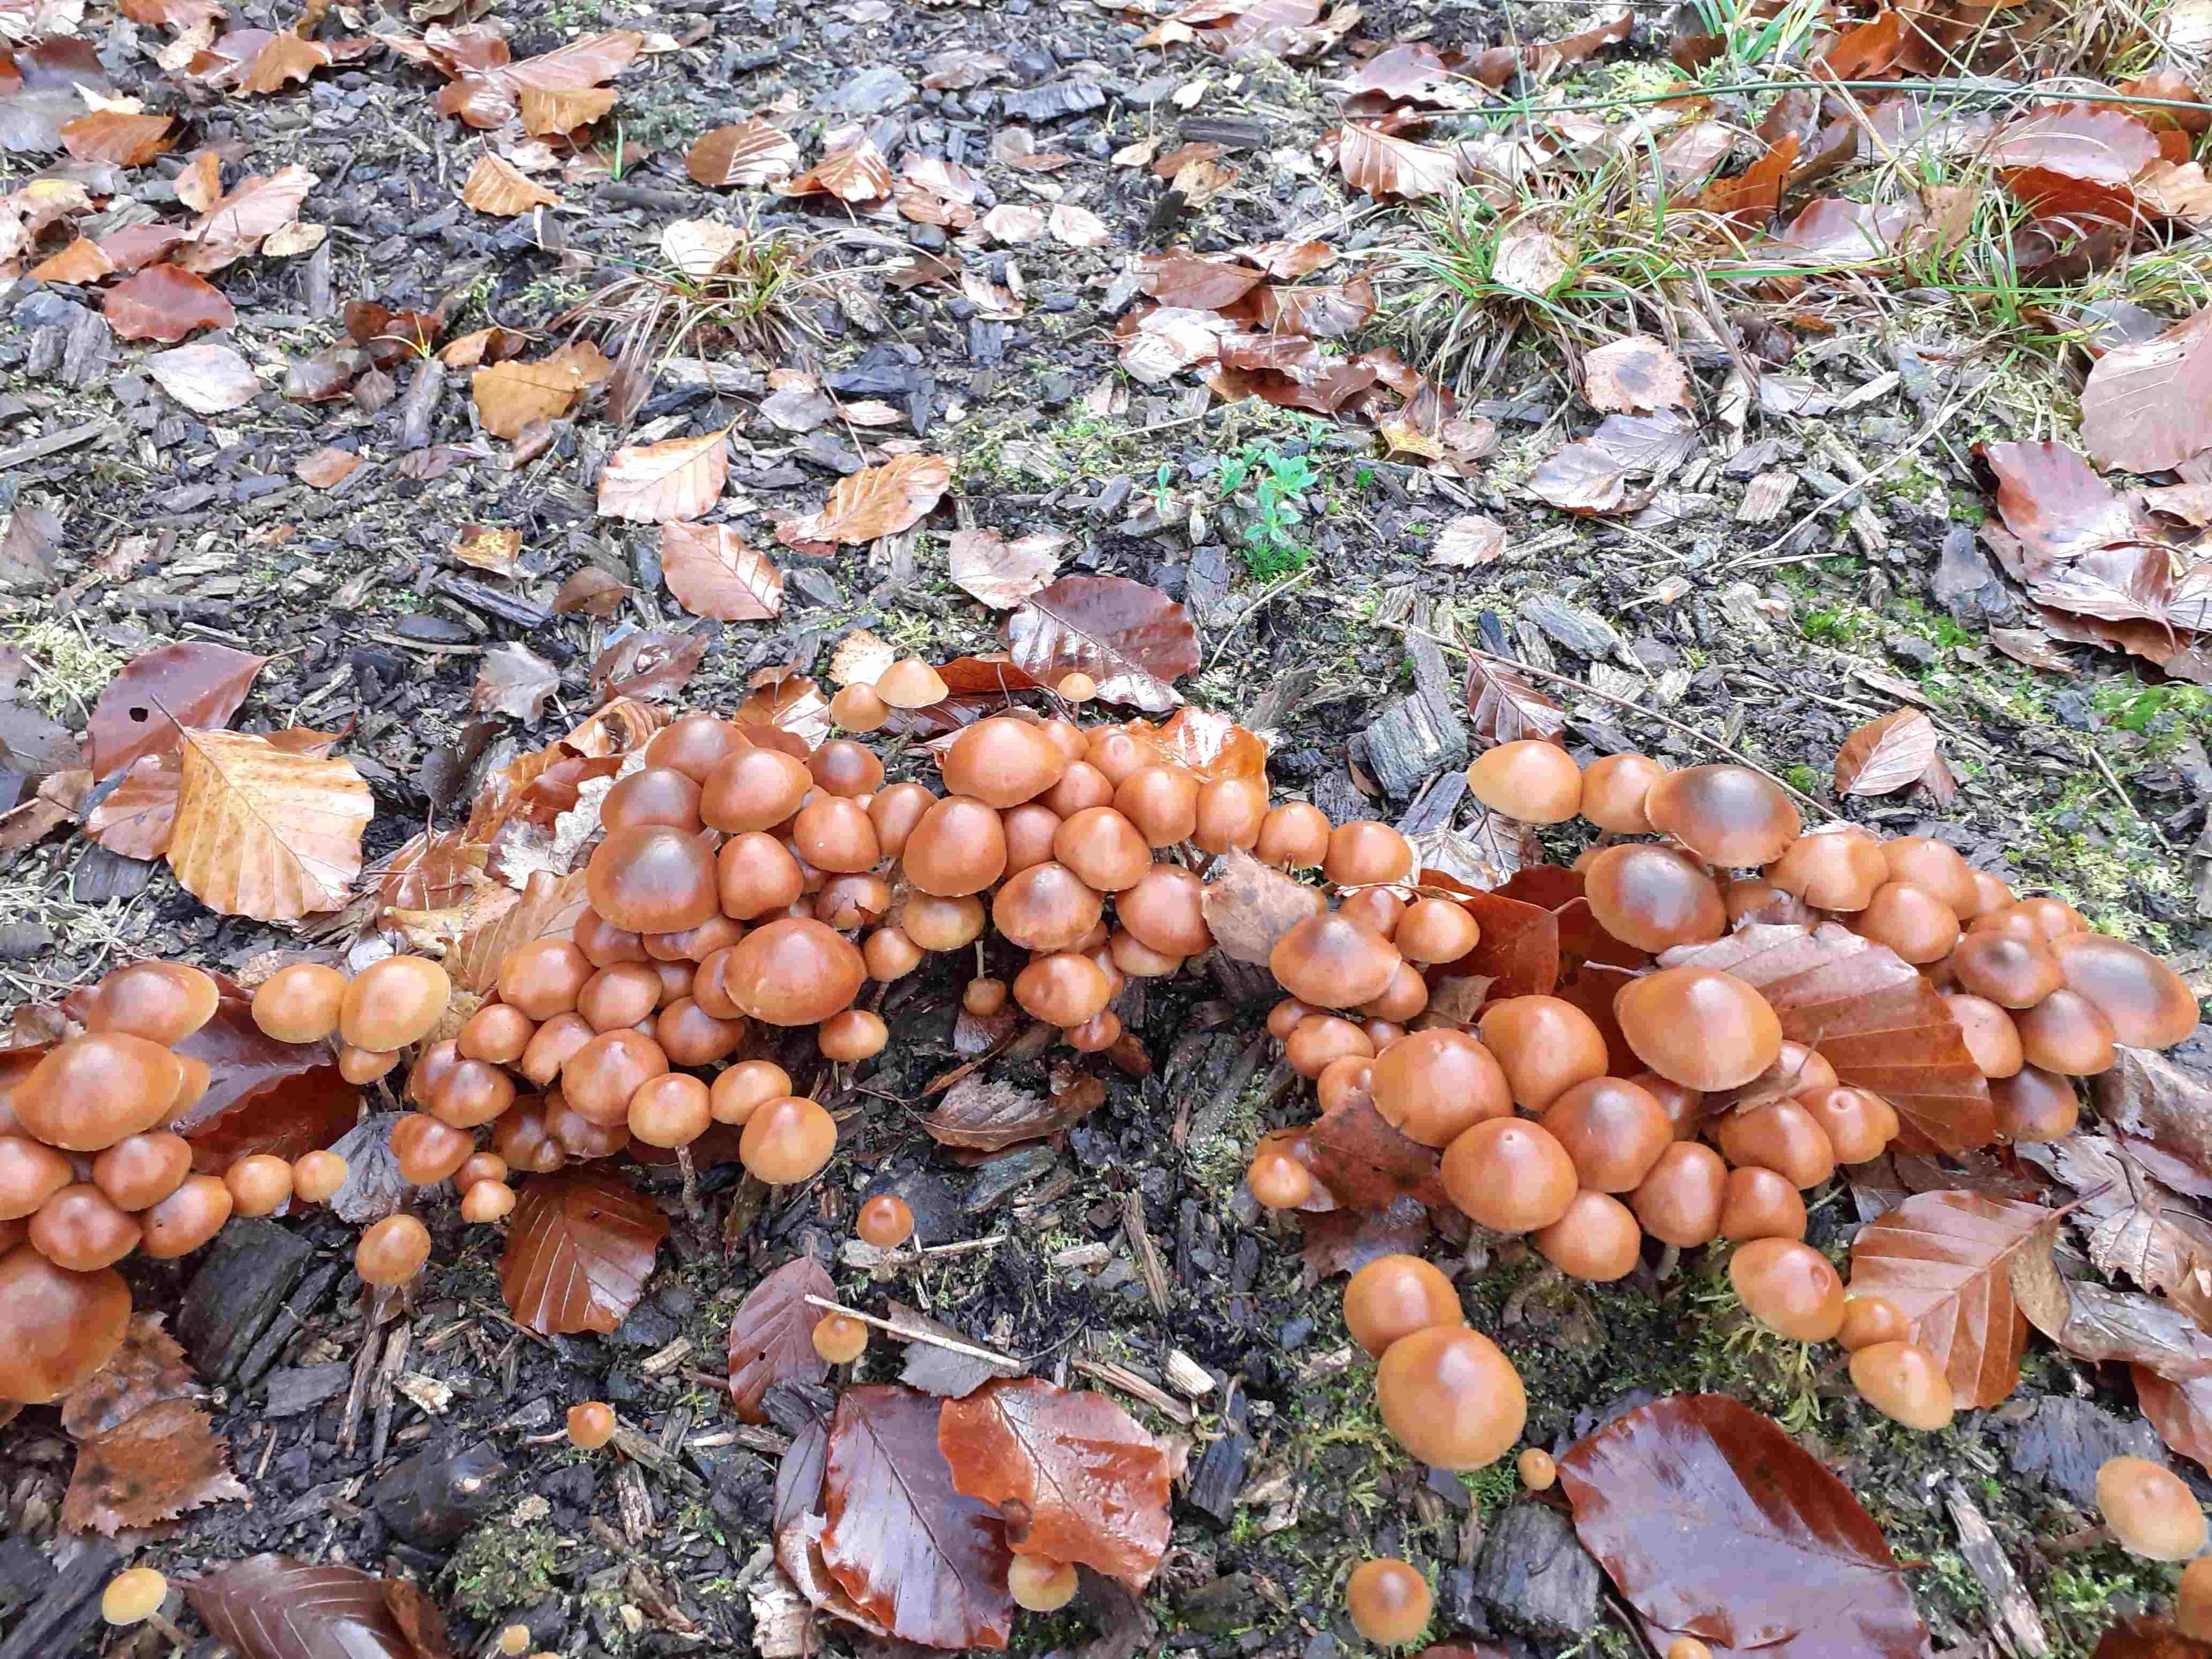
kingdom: Fungi
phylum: Basidiomycota
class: Agaricomycetes
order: Agaricales
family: Hymenogastraceae
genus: Galerina
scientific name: Galerina sideroides
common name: træflis-hjelmhat
